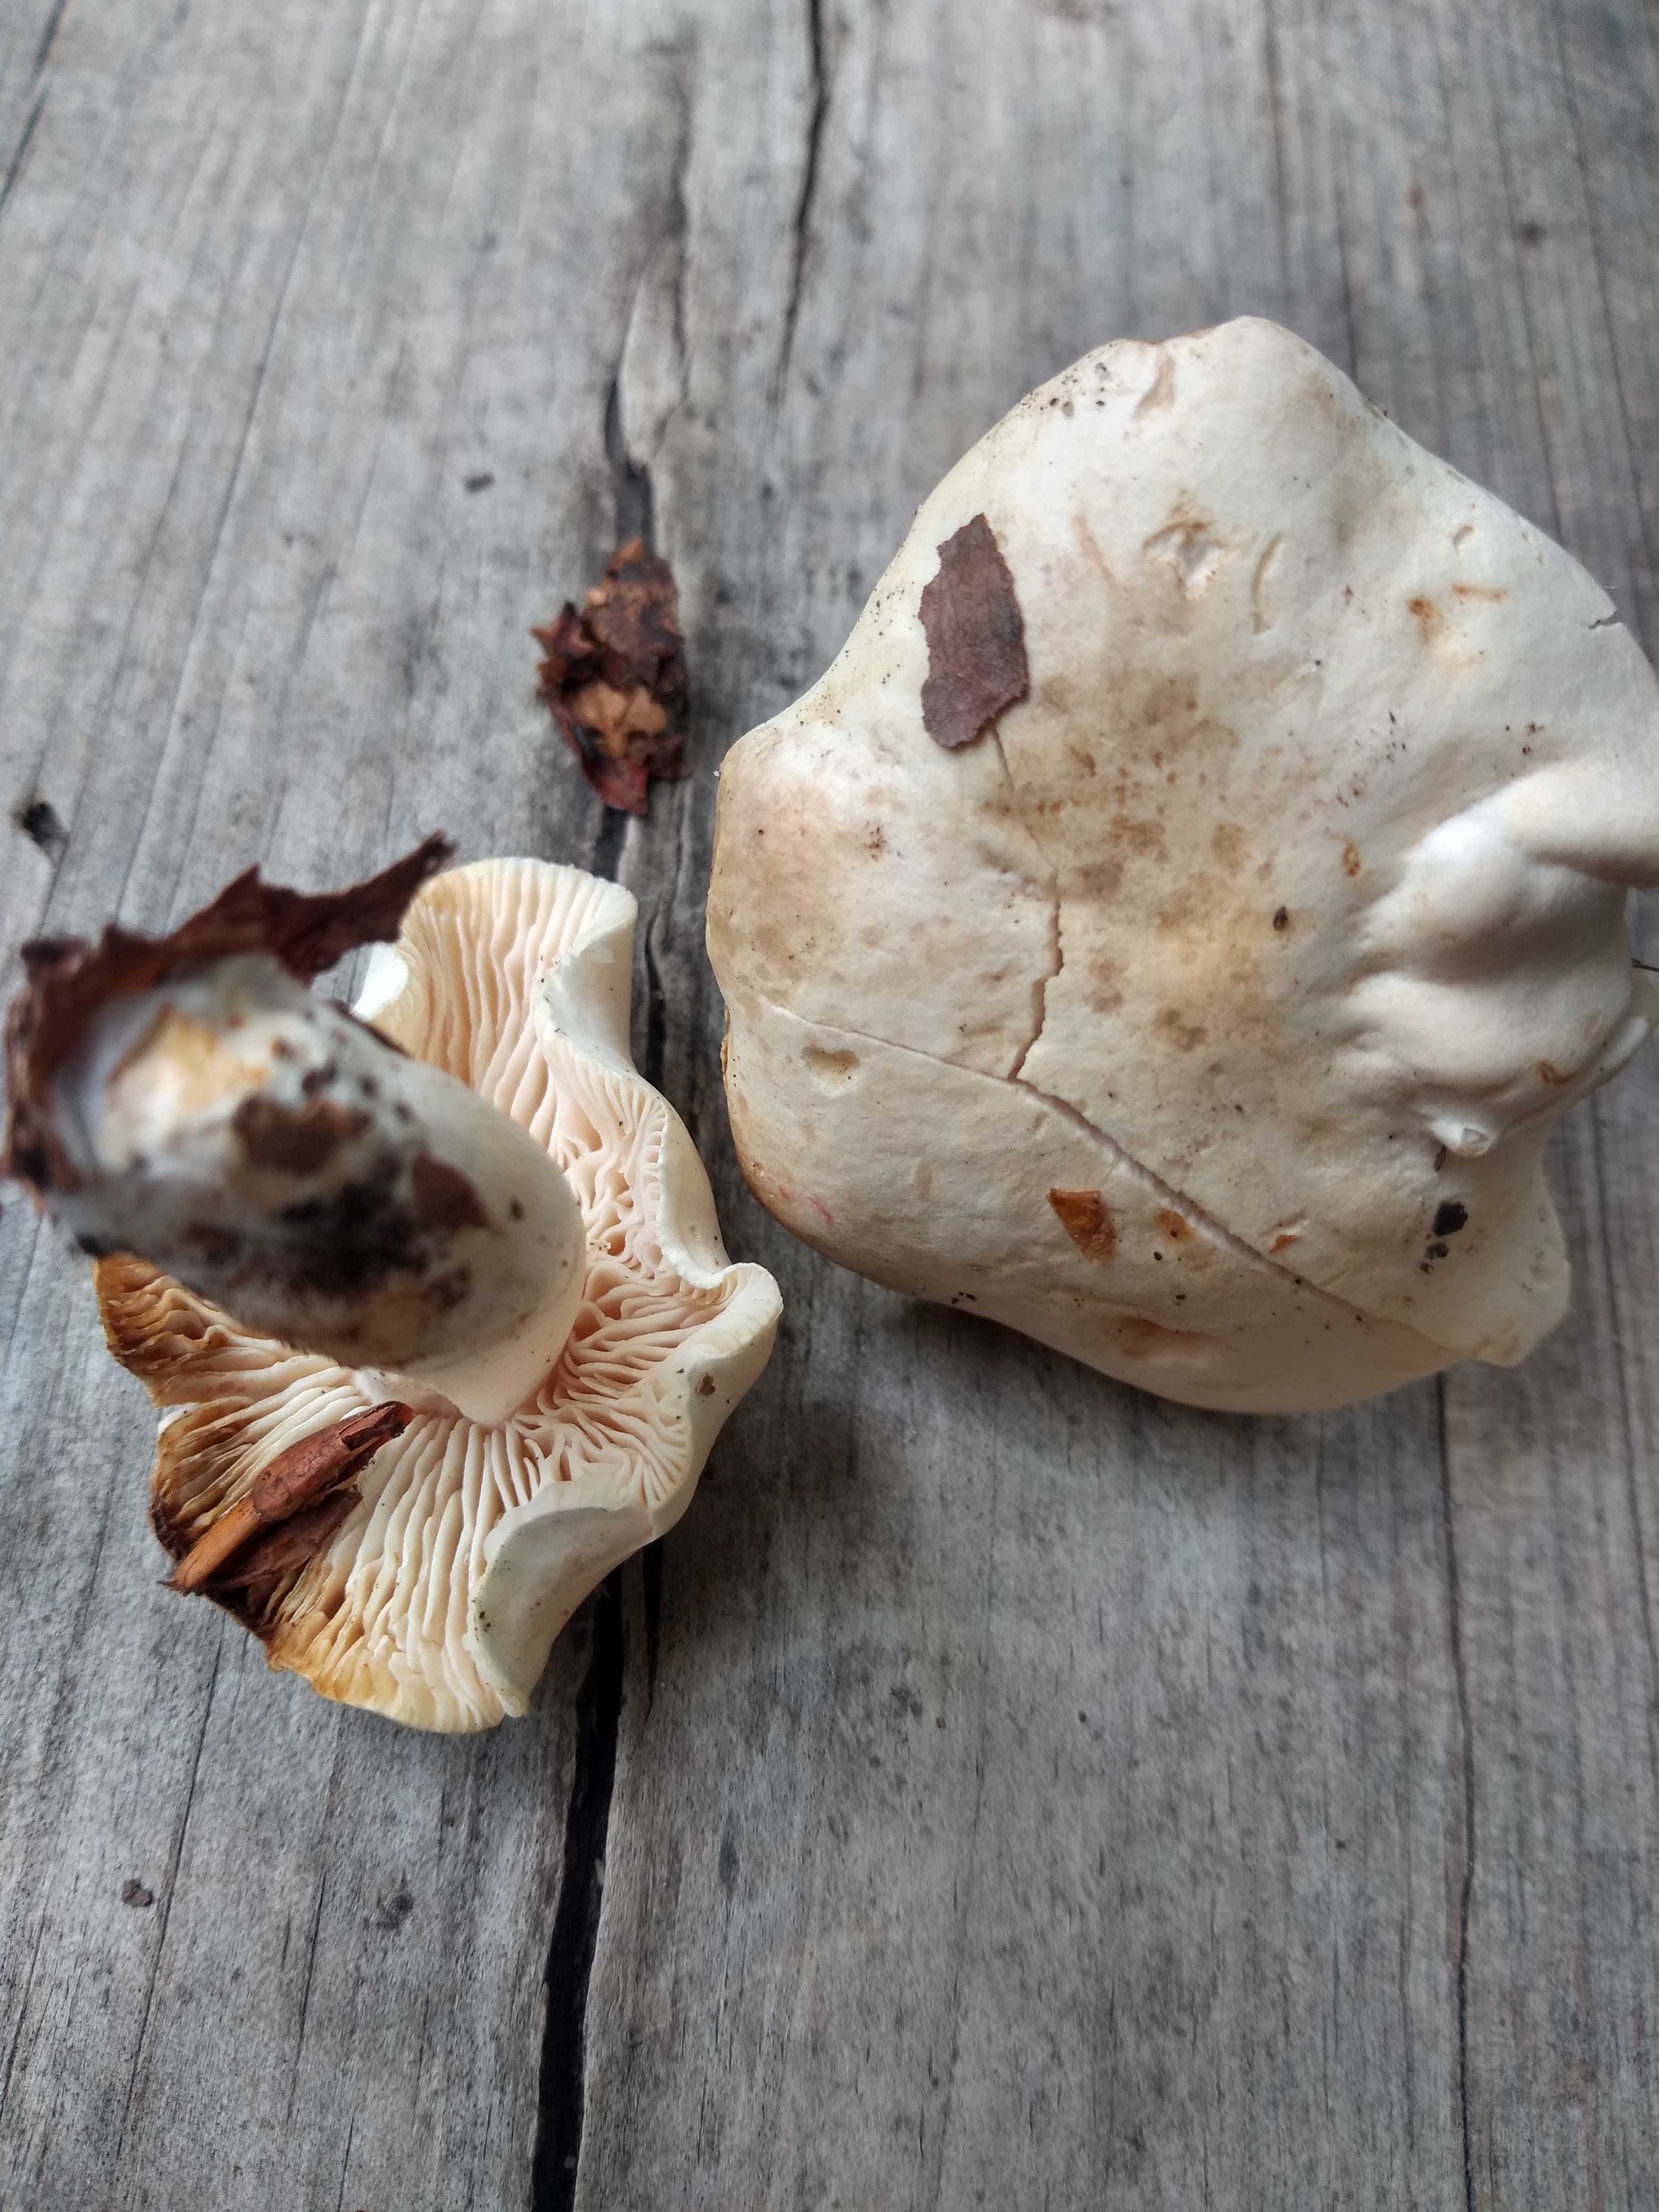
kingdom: Fungi
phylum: Basidiomycota
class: Agaricomycetes
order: Agaricales
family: Tricholomataceae
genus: Tricholoma
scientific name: Tricholoma lascivum
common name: stinkende ridderhat
